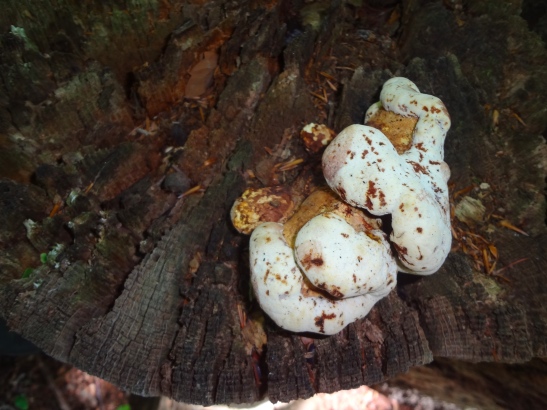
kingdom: Fungi
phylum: Basidiomycota
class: Agaricomycetes
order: Polyporales
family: Fomitopsidaceae
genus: Buglossoporus
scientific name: Buglossoporus quercinus
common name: egetunge
